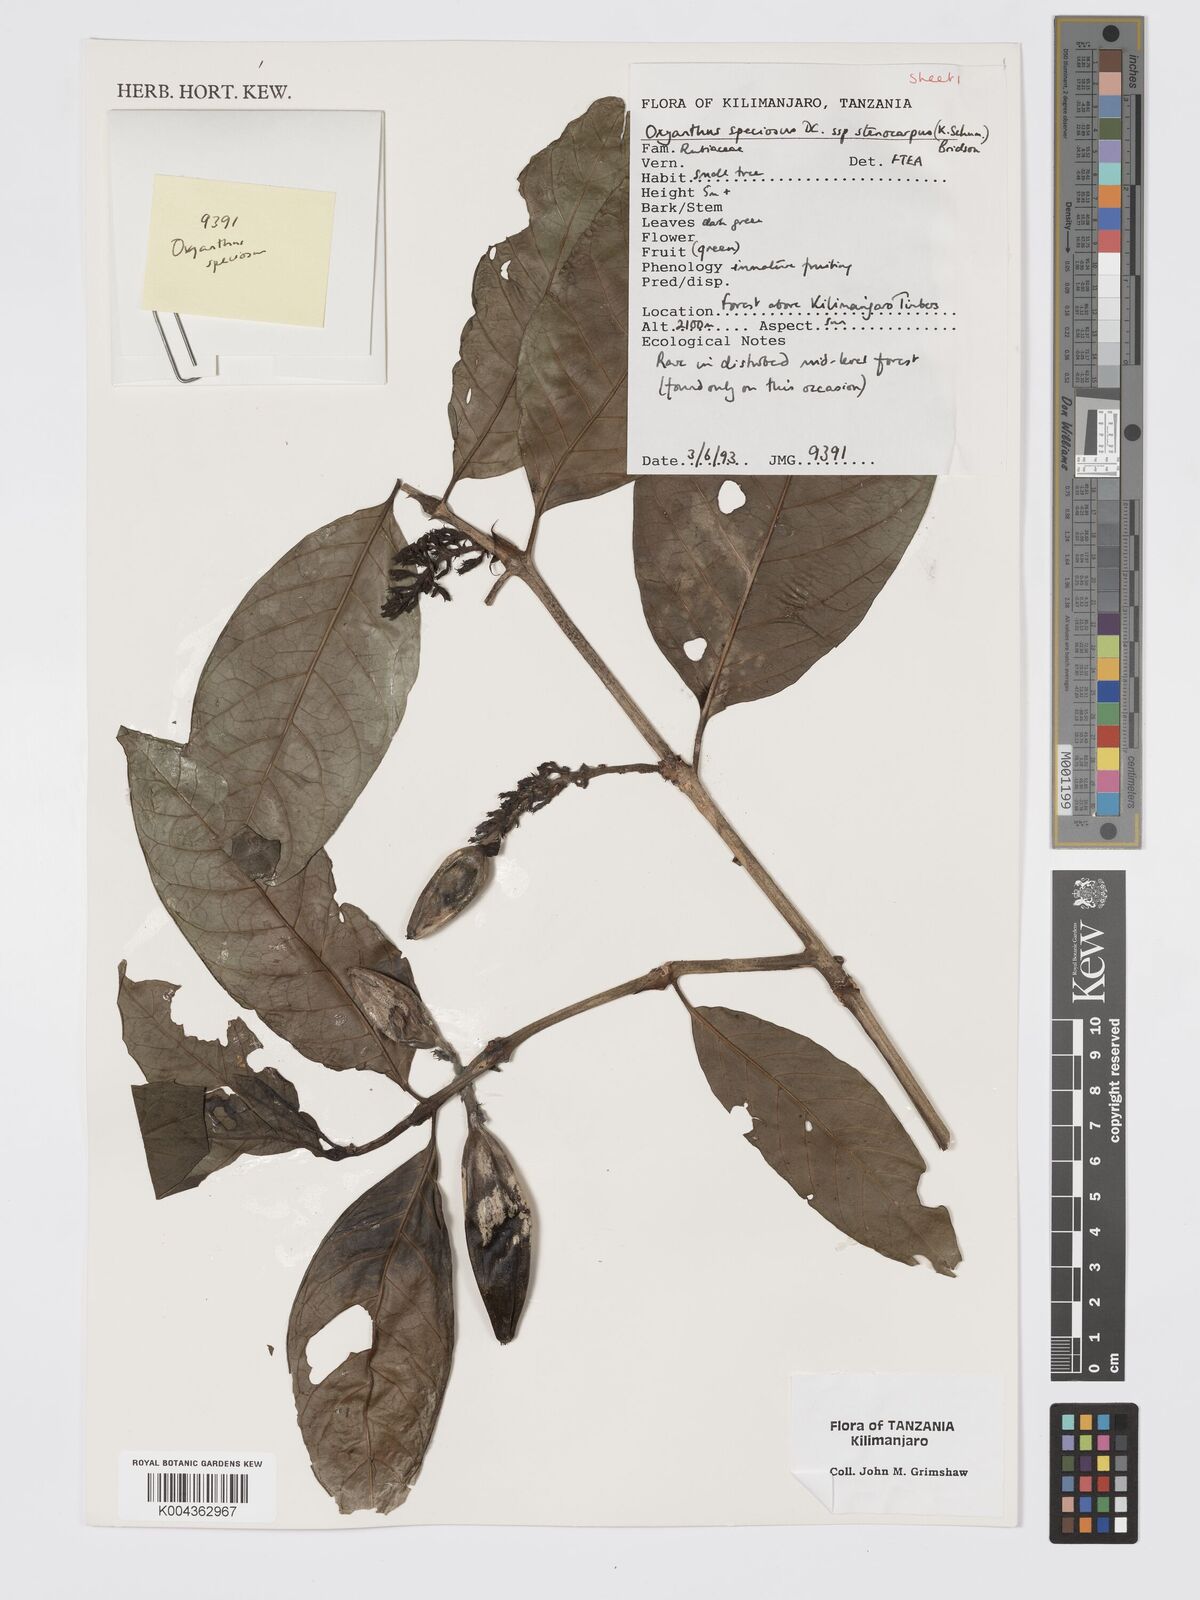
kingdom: Plantae
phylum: Tracheophyta
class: Magnoliopsida
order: Gentianales
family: Rubiaceae
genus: Oxyanthus
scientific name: Oxyanthus speciosus
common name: Whipstick loquat
